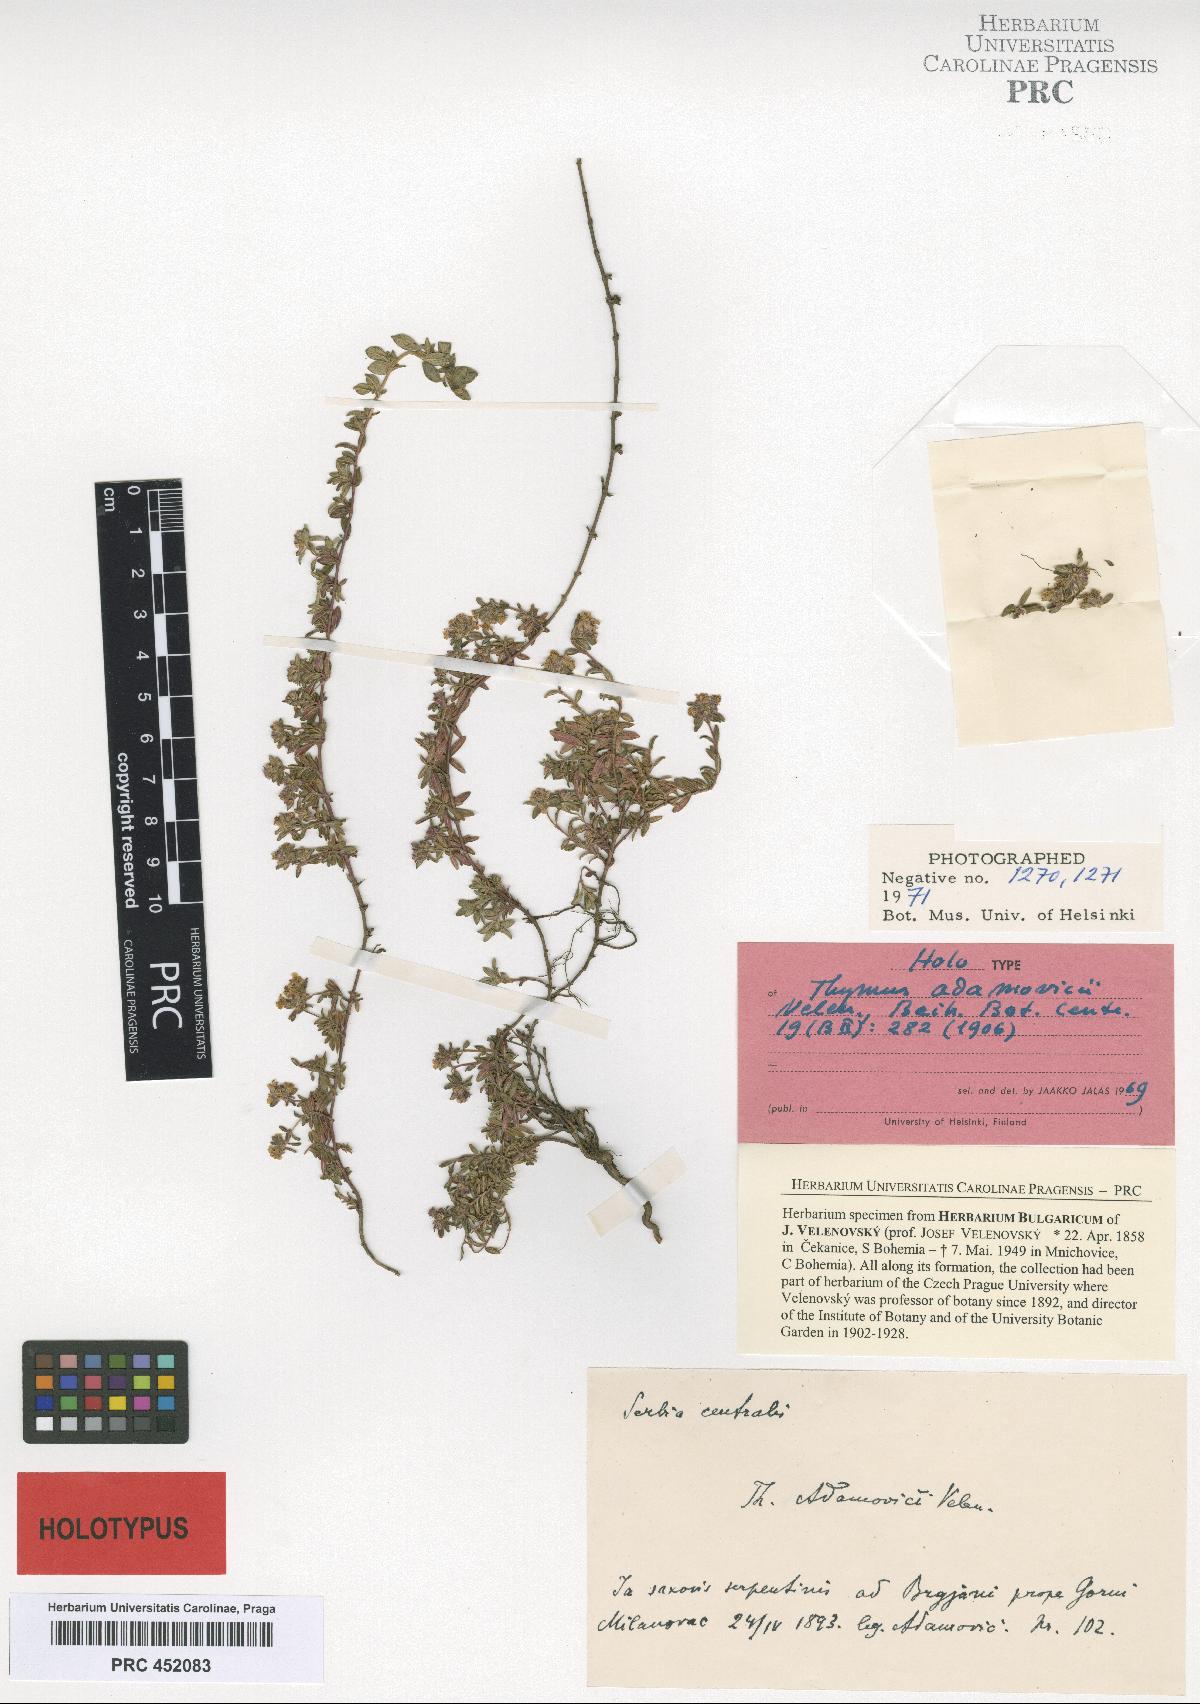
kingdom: Plantae
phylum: Tracheophyta
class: Magnoliopsida
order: Lamiales
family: Lamiaceae
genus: Thymus
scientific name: Thymus adamovicii
